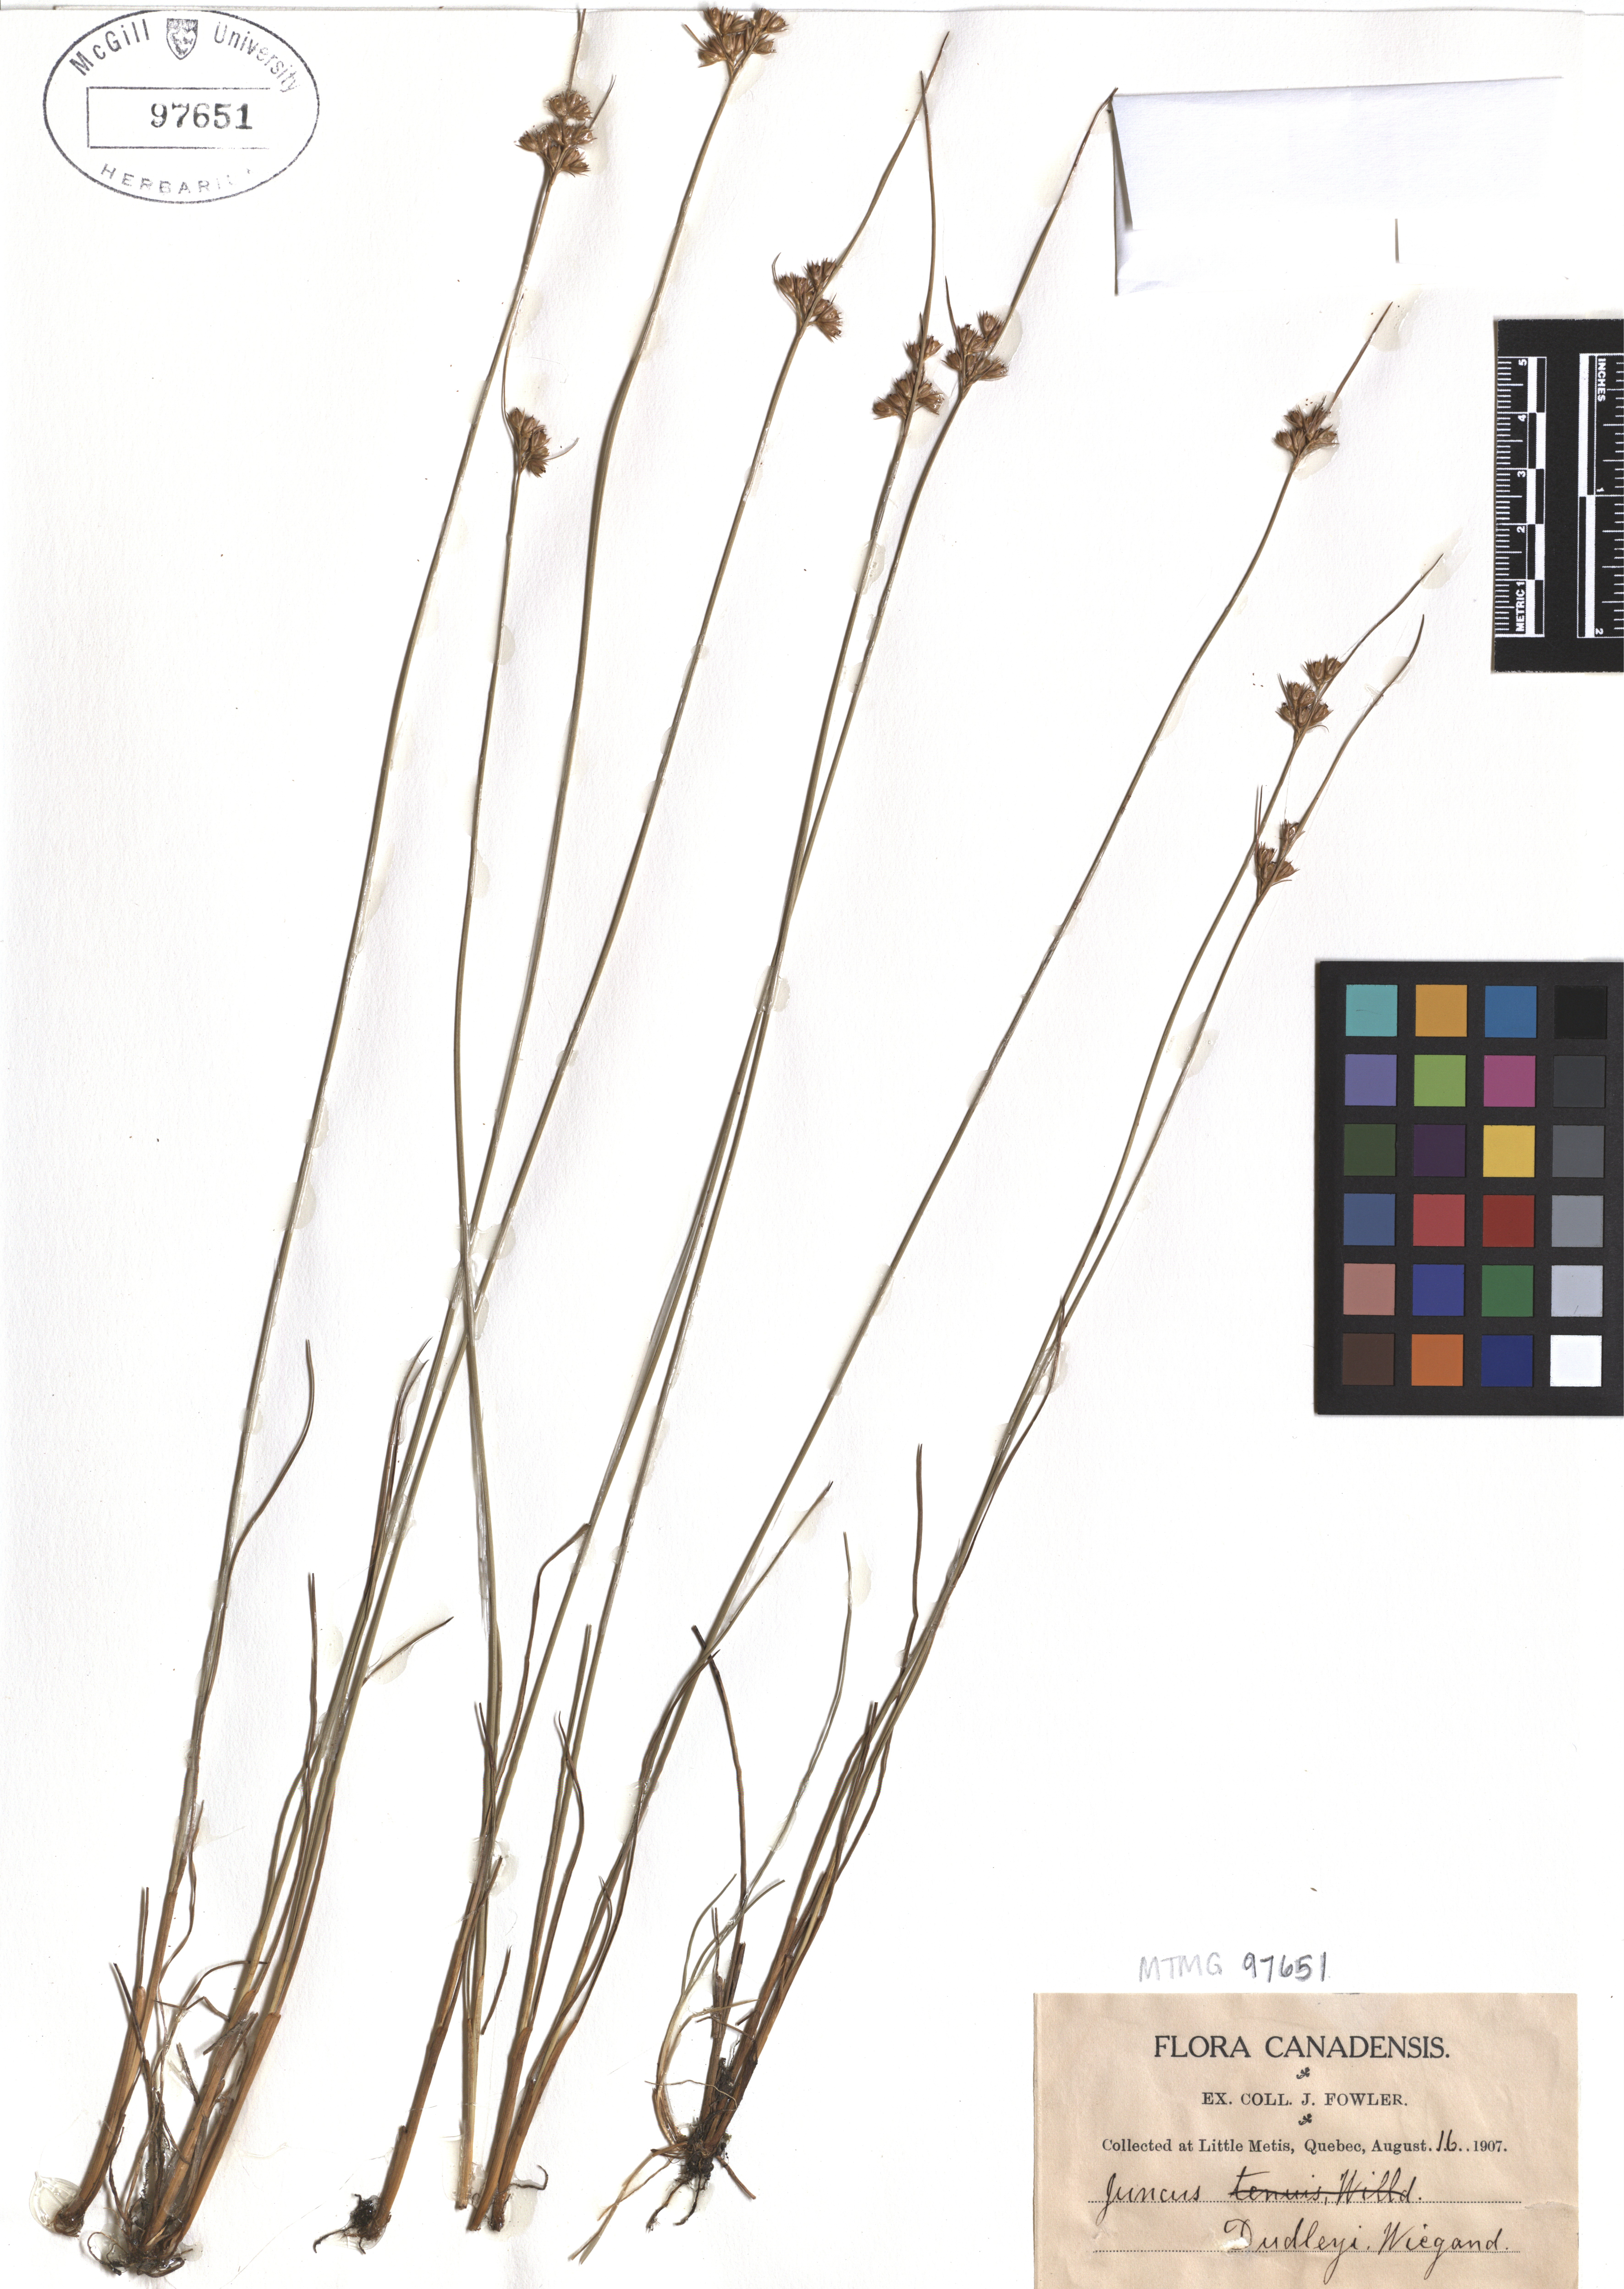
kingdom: Plantae
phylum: Tracheophyta
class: Liliopsida
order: Poales
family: Juncaceae
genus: Juncus
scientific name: Juncus dudleyi
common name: Dudley's rush
